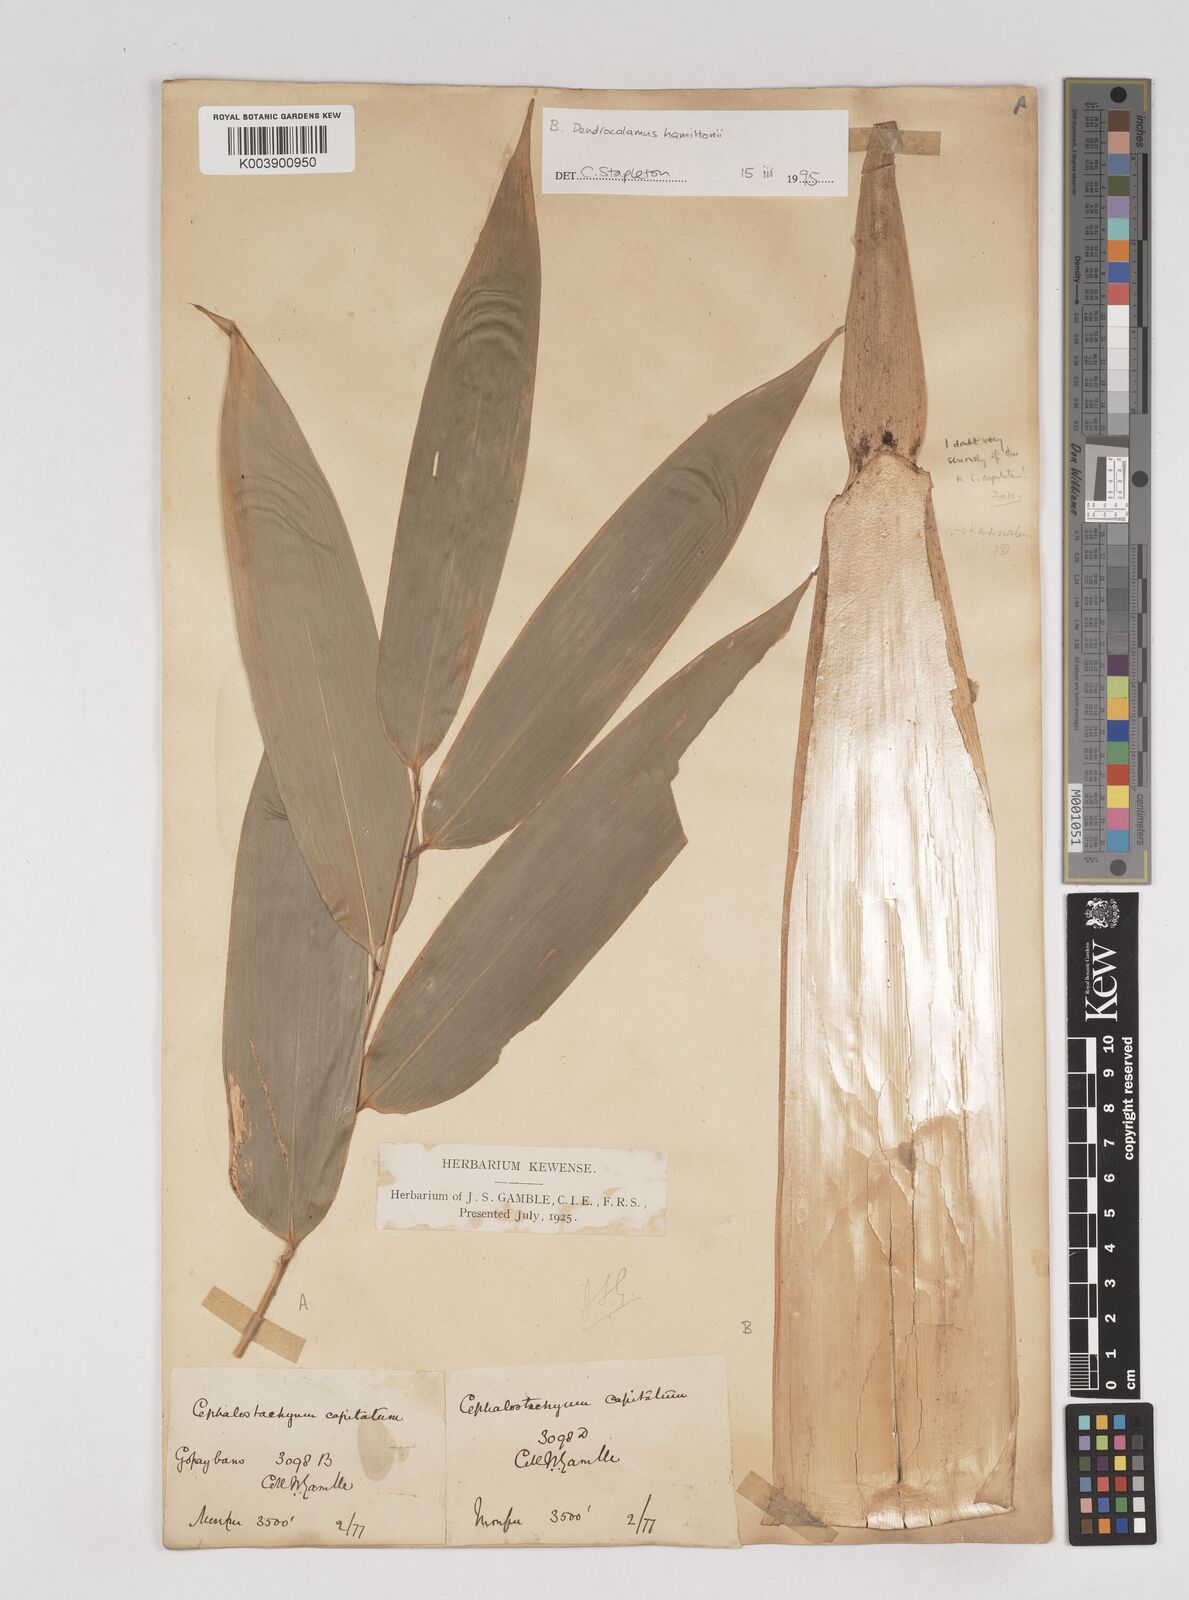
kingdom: Plantae
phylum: Tracheophyta
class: Liliopsida
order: Poales
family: Poaceae
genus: Cephalostachyum
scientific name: Cephalostachyum capitatum
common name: Hollow bamboo
